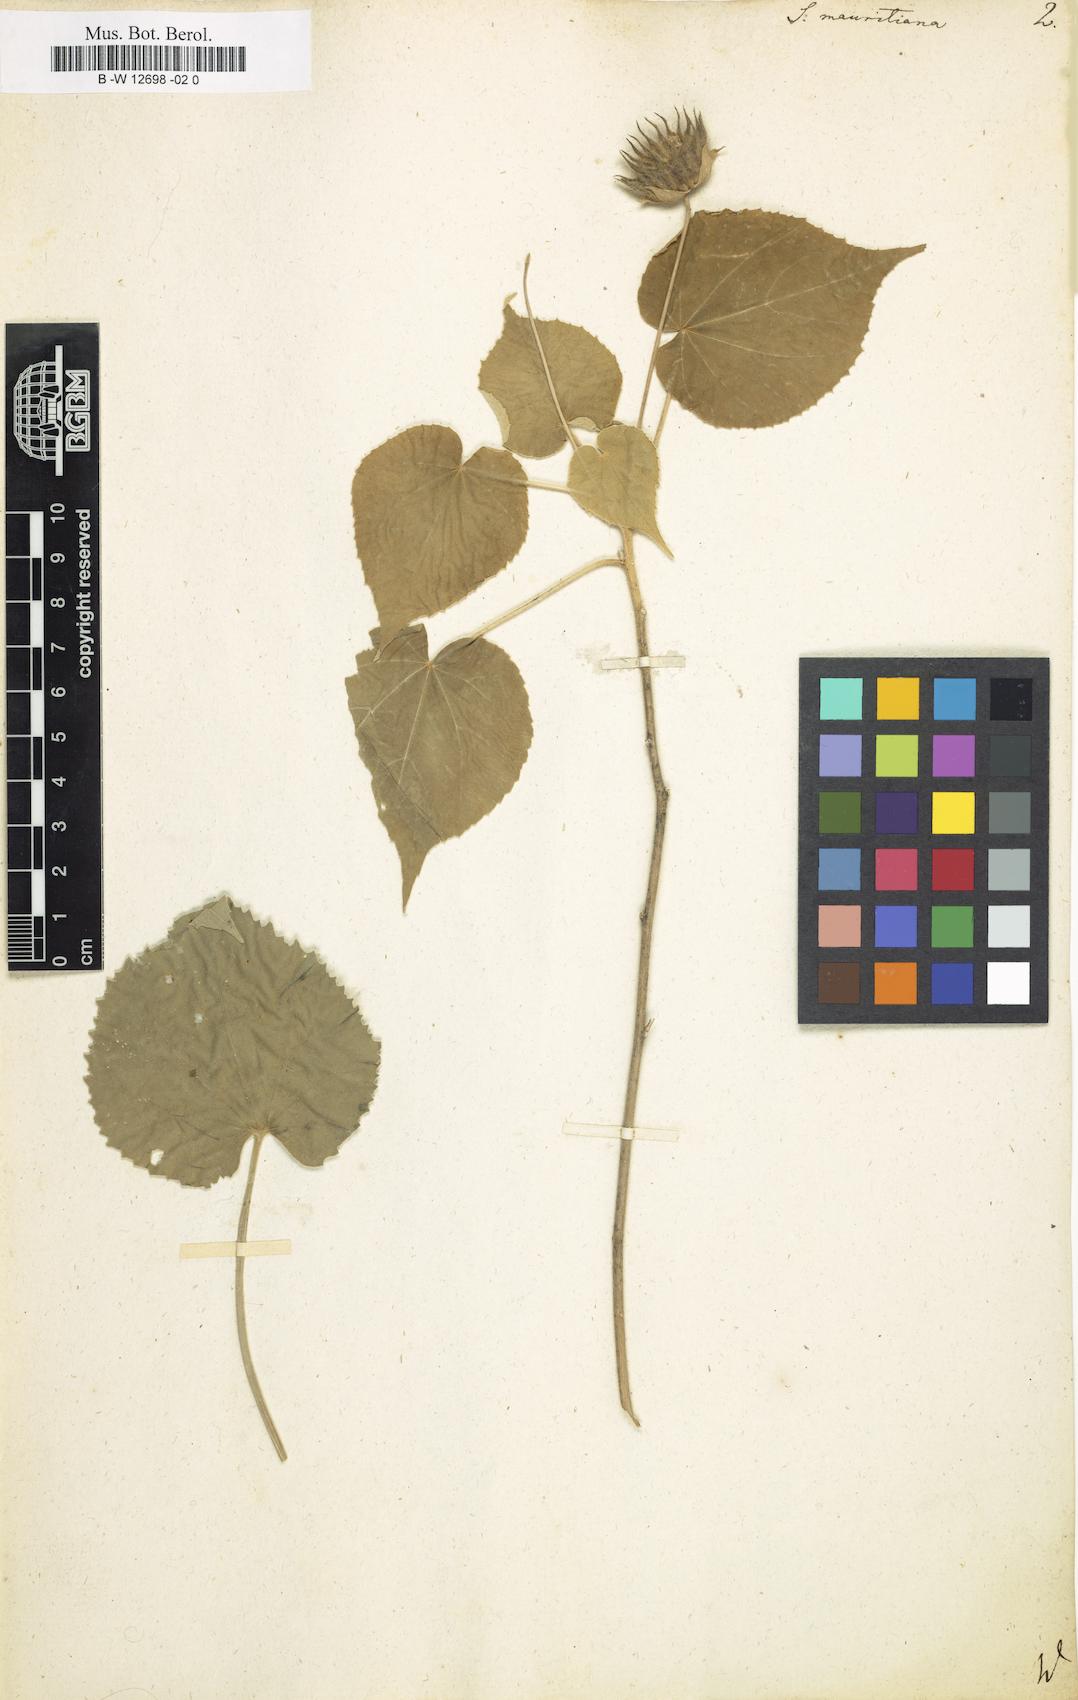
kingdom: Plantae
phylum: Tracheophyta
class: Magnoliopsida
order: Malvales
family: Malvaceae
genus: Abutilon
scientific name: Abutilon mauritianum
